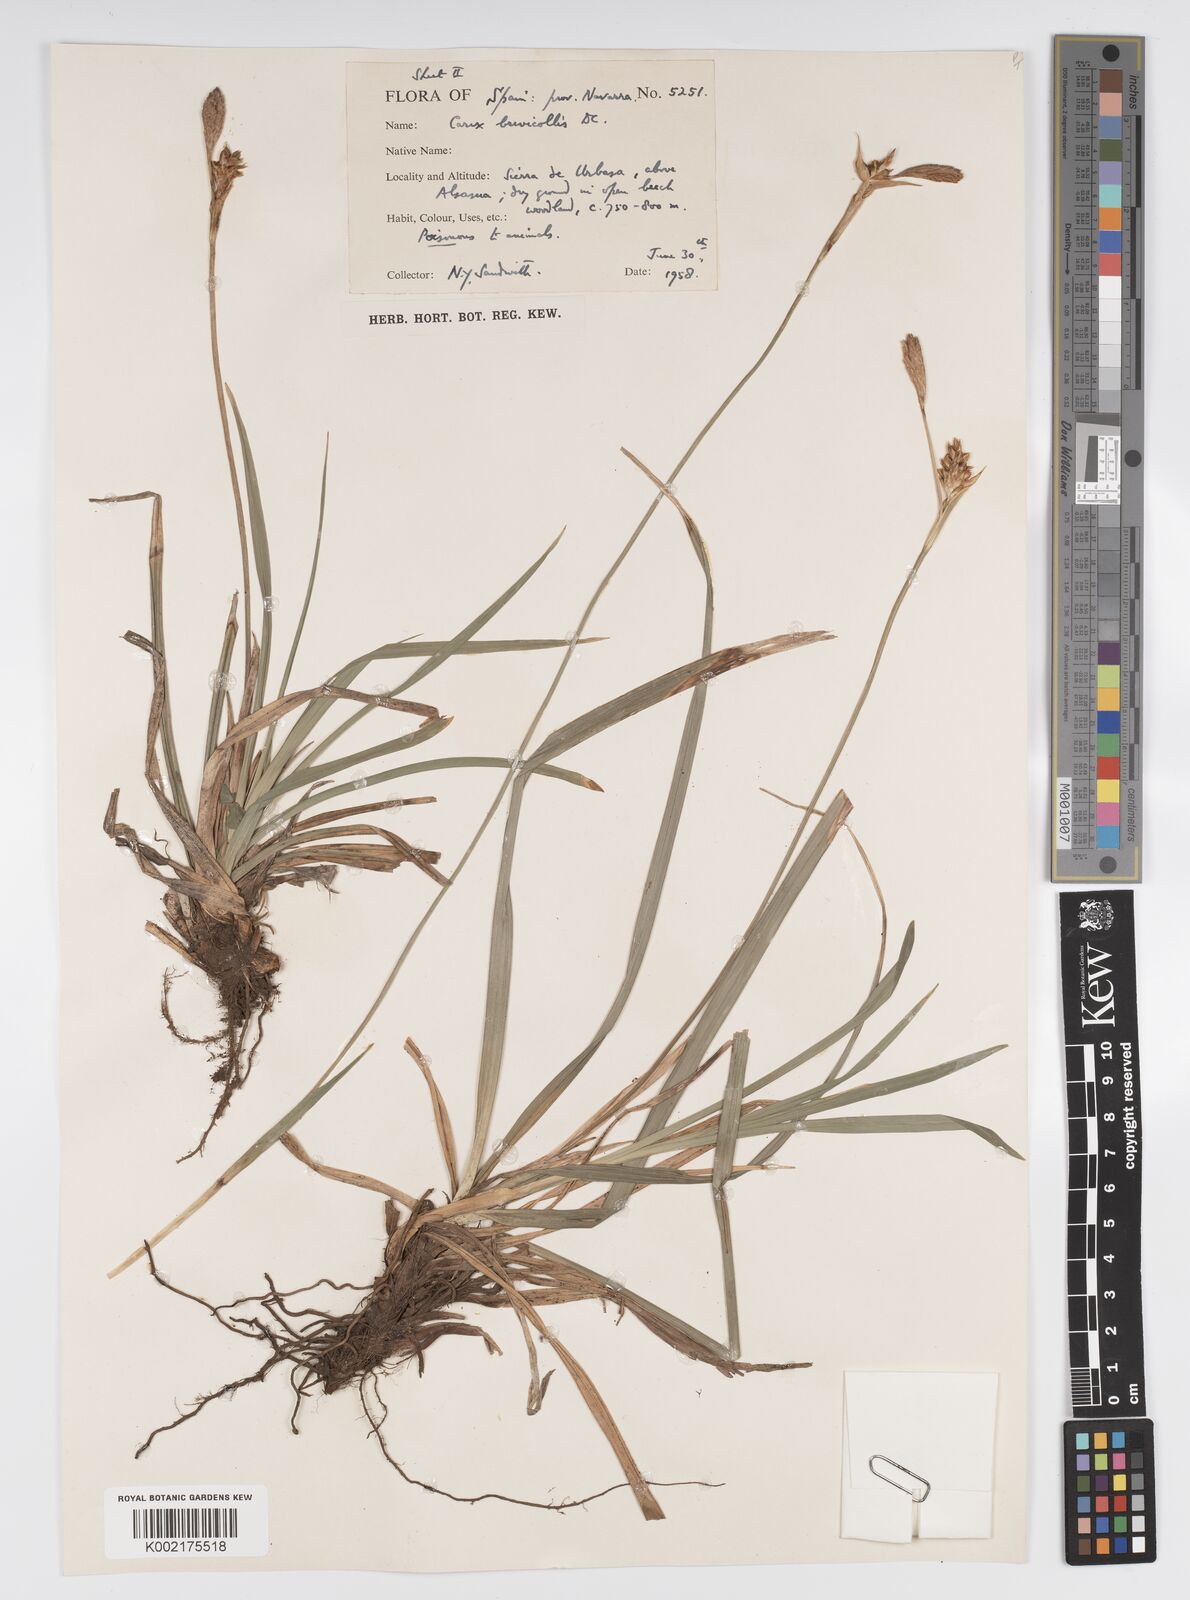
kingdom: Plantae
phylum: Tracheophyta
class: Liliopsida
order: Poales
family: Cyperaceae
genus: Carex
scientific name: Carex brevicollis
